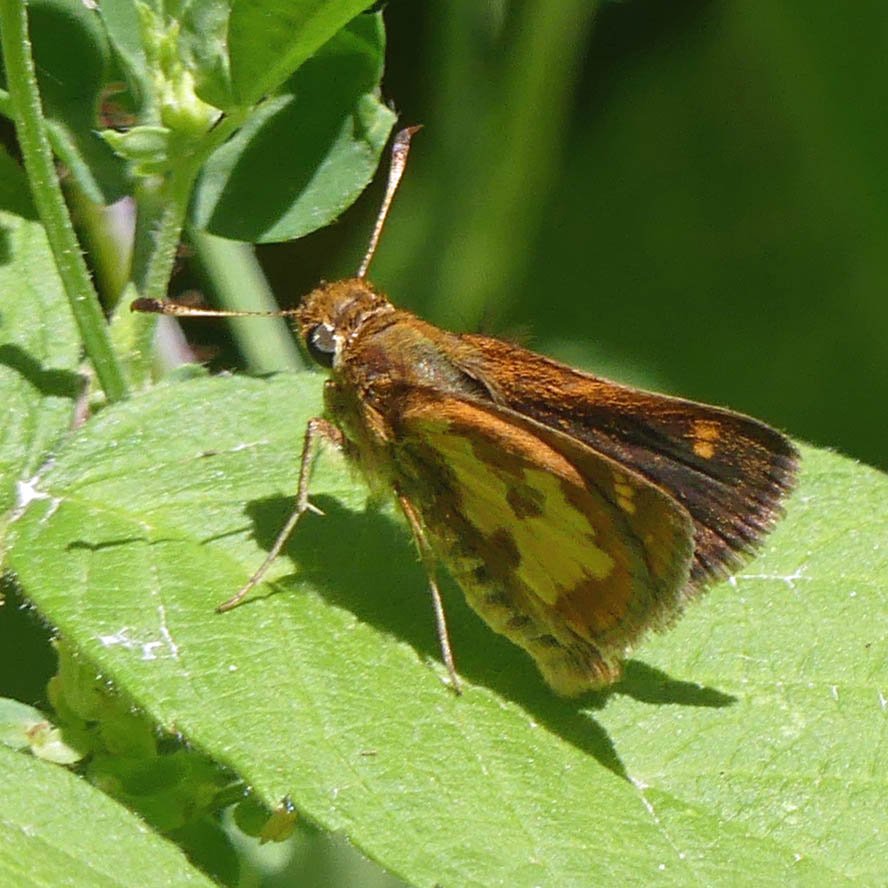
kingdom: Animalia
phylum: Arthropoda
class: Insecta
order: Lepidoptera
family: Hesperiidae
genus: Polites
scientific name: Polites coras
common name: Peck's Skipper
